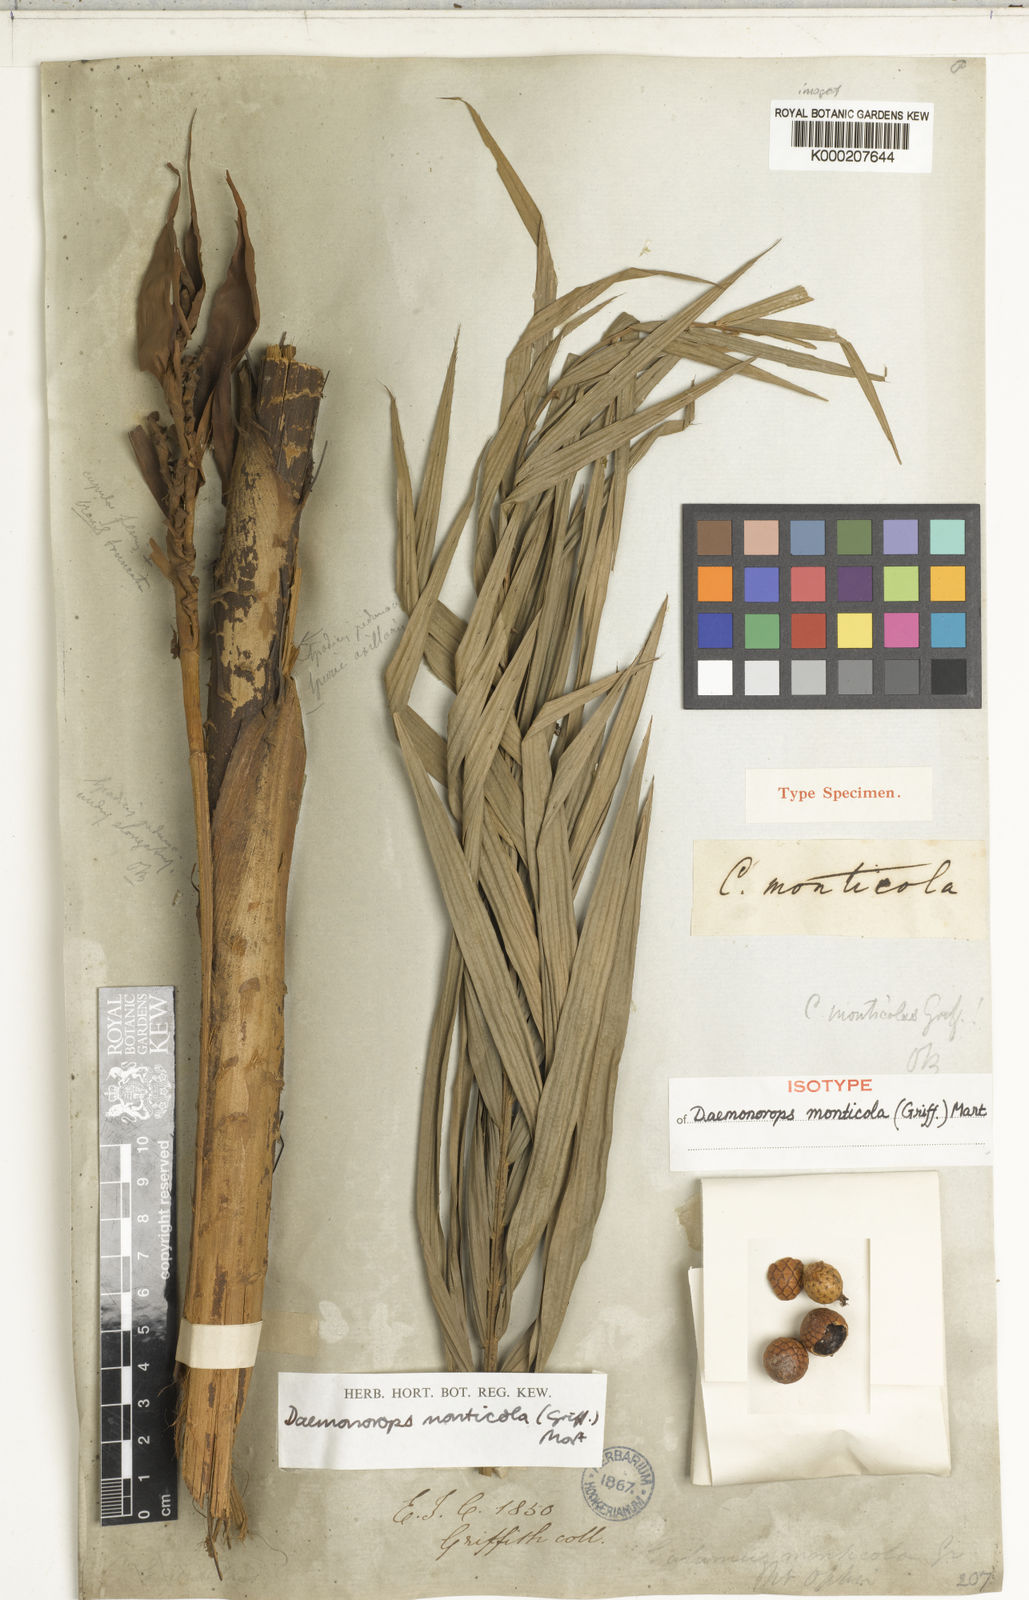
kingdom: Plantae
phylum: Tracheophyta
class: Liliopsida
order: Arecales
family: Arecaceae
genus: Calamus
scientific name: Calamus melanochaetes
